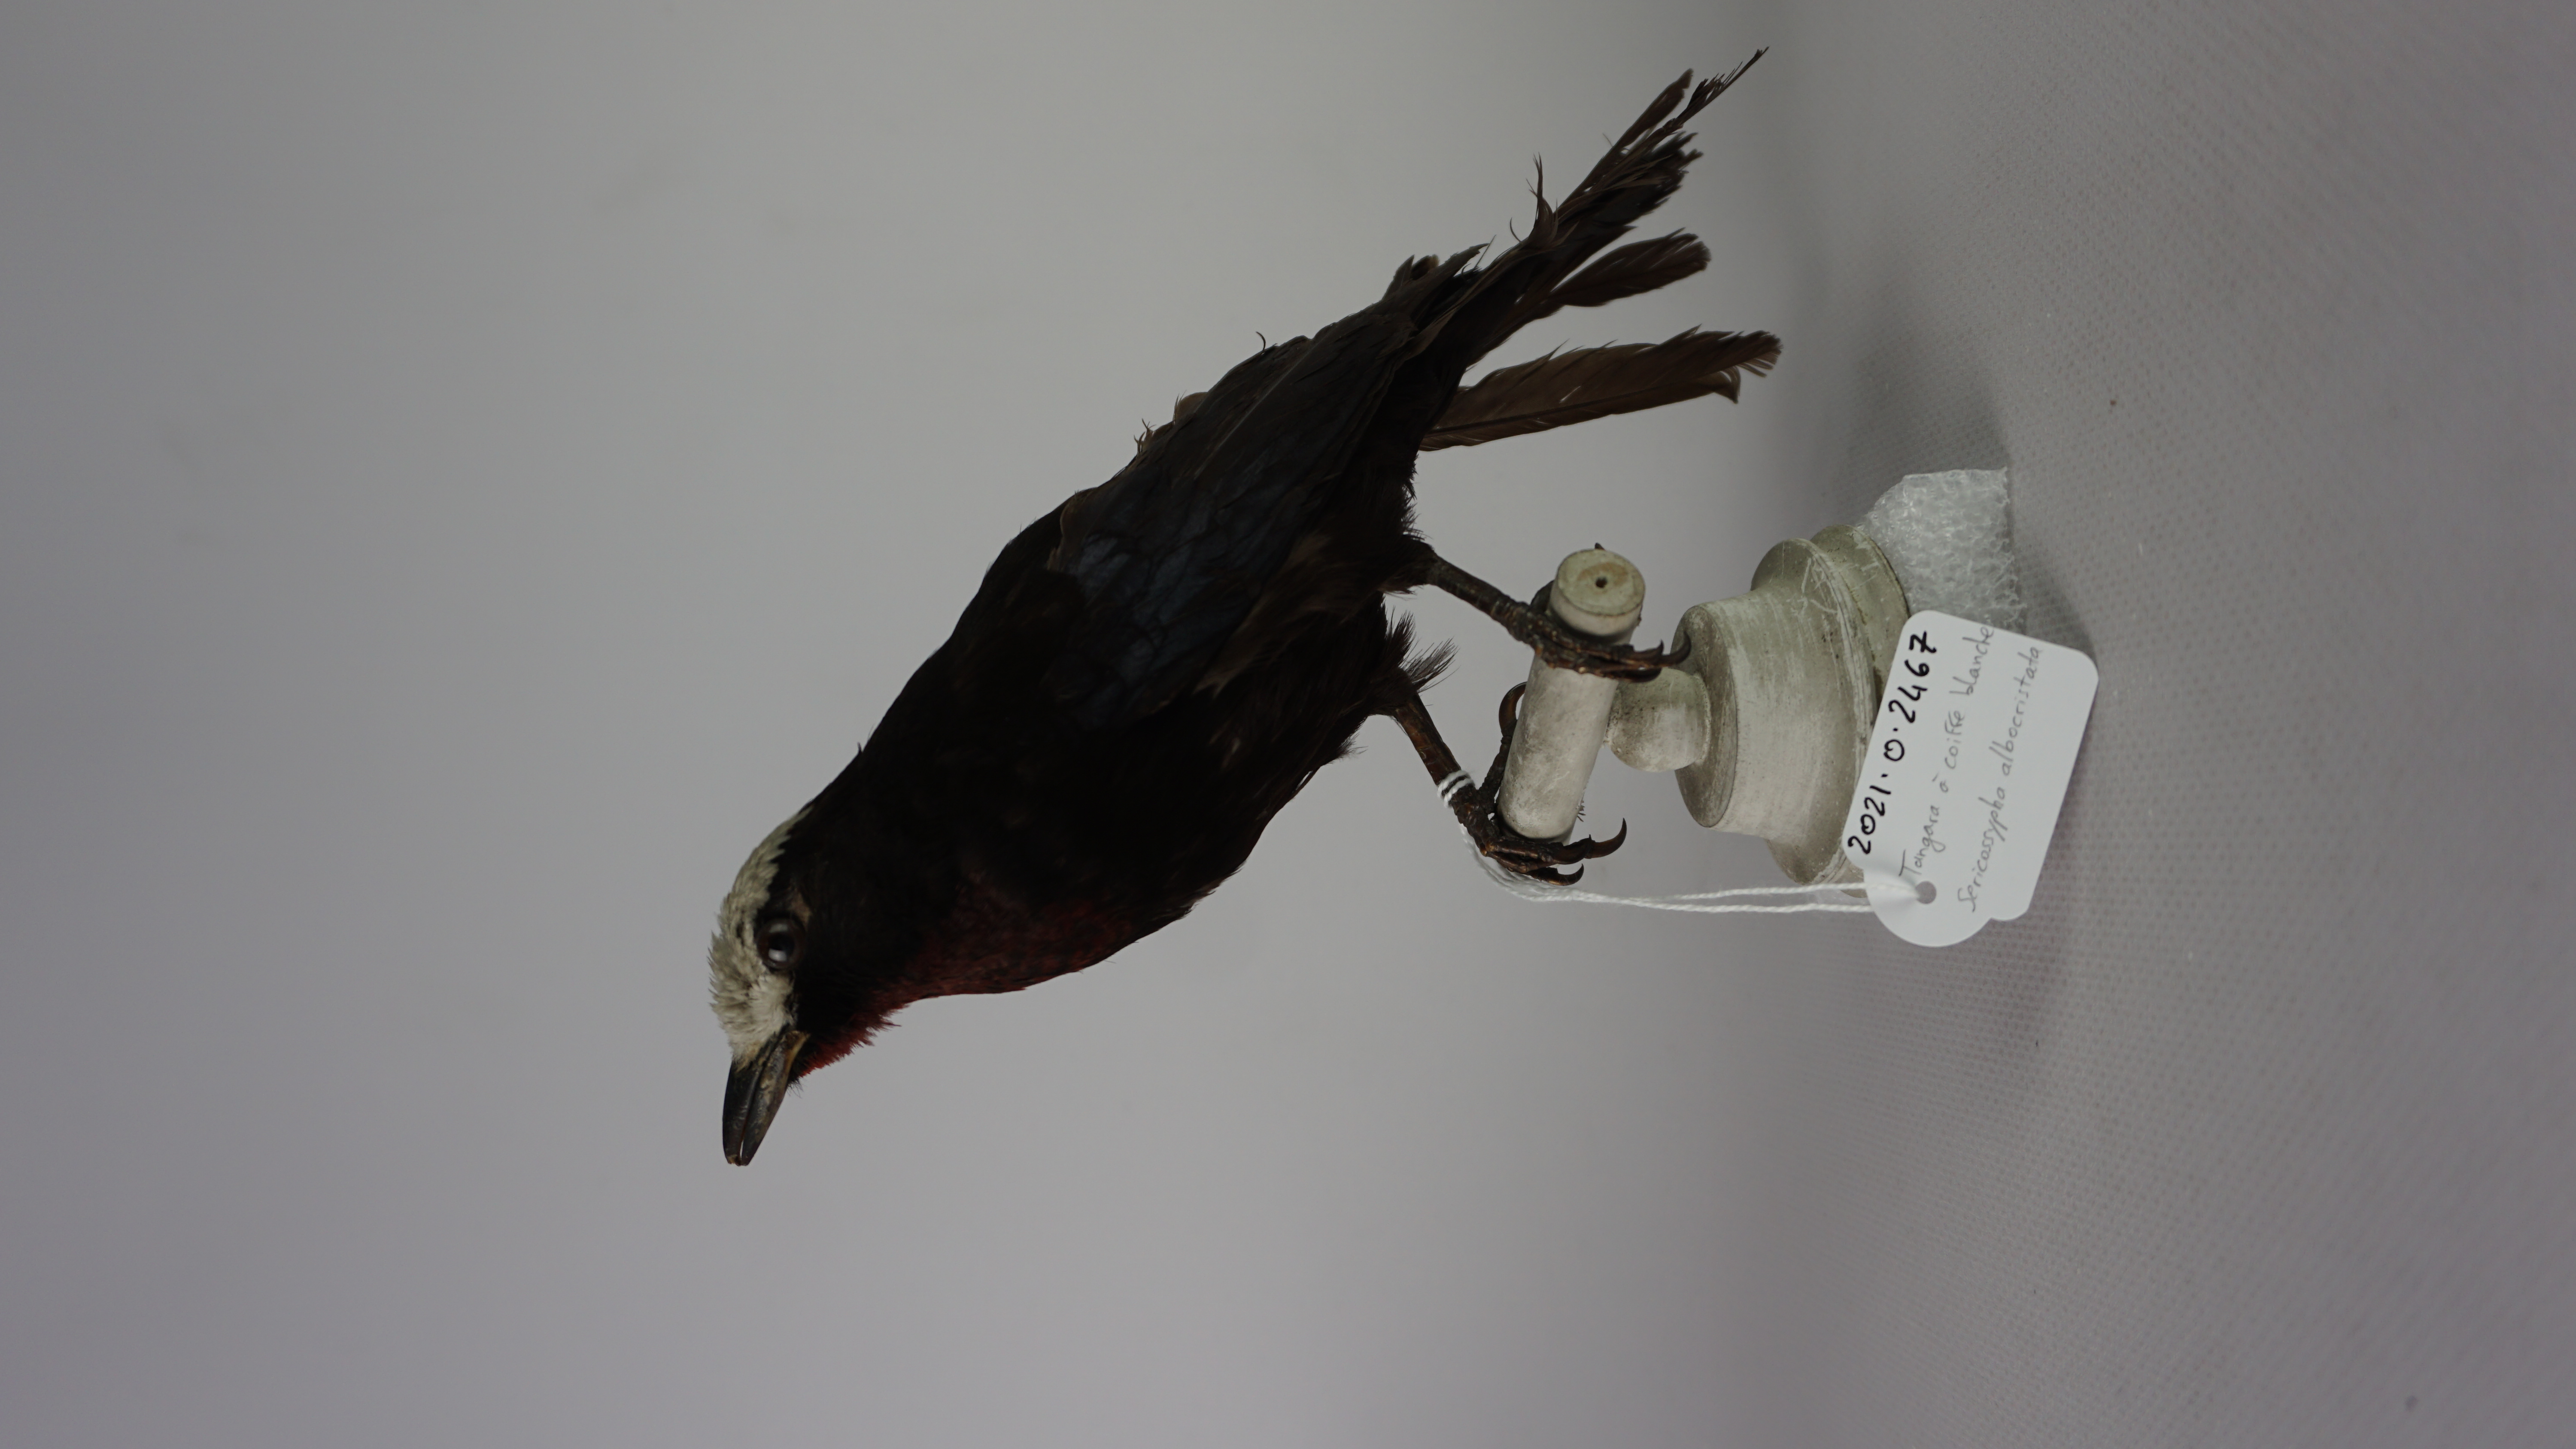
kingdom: Animalia
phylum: Chordata
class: Aves
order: Passeriformes
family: Thraupidae
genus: Sericossypha
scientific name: Sericossypha albocristata
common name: White-capped tanager
